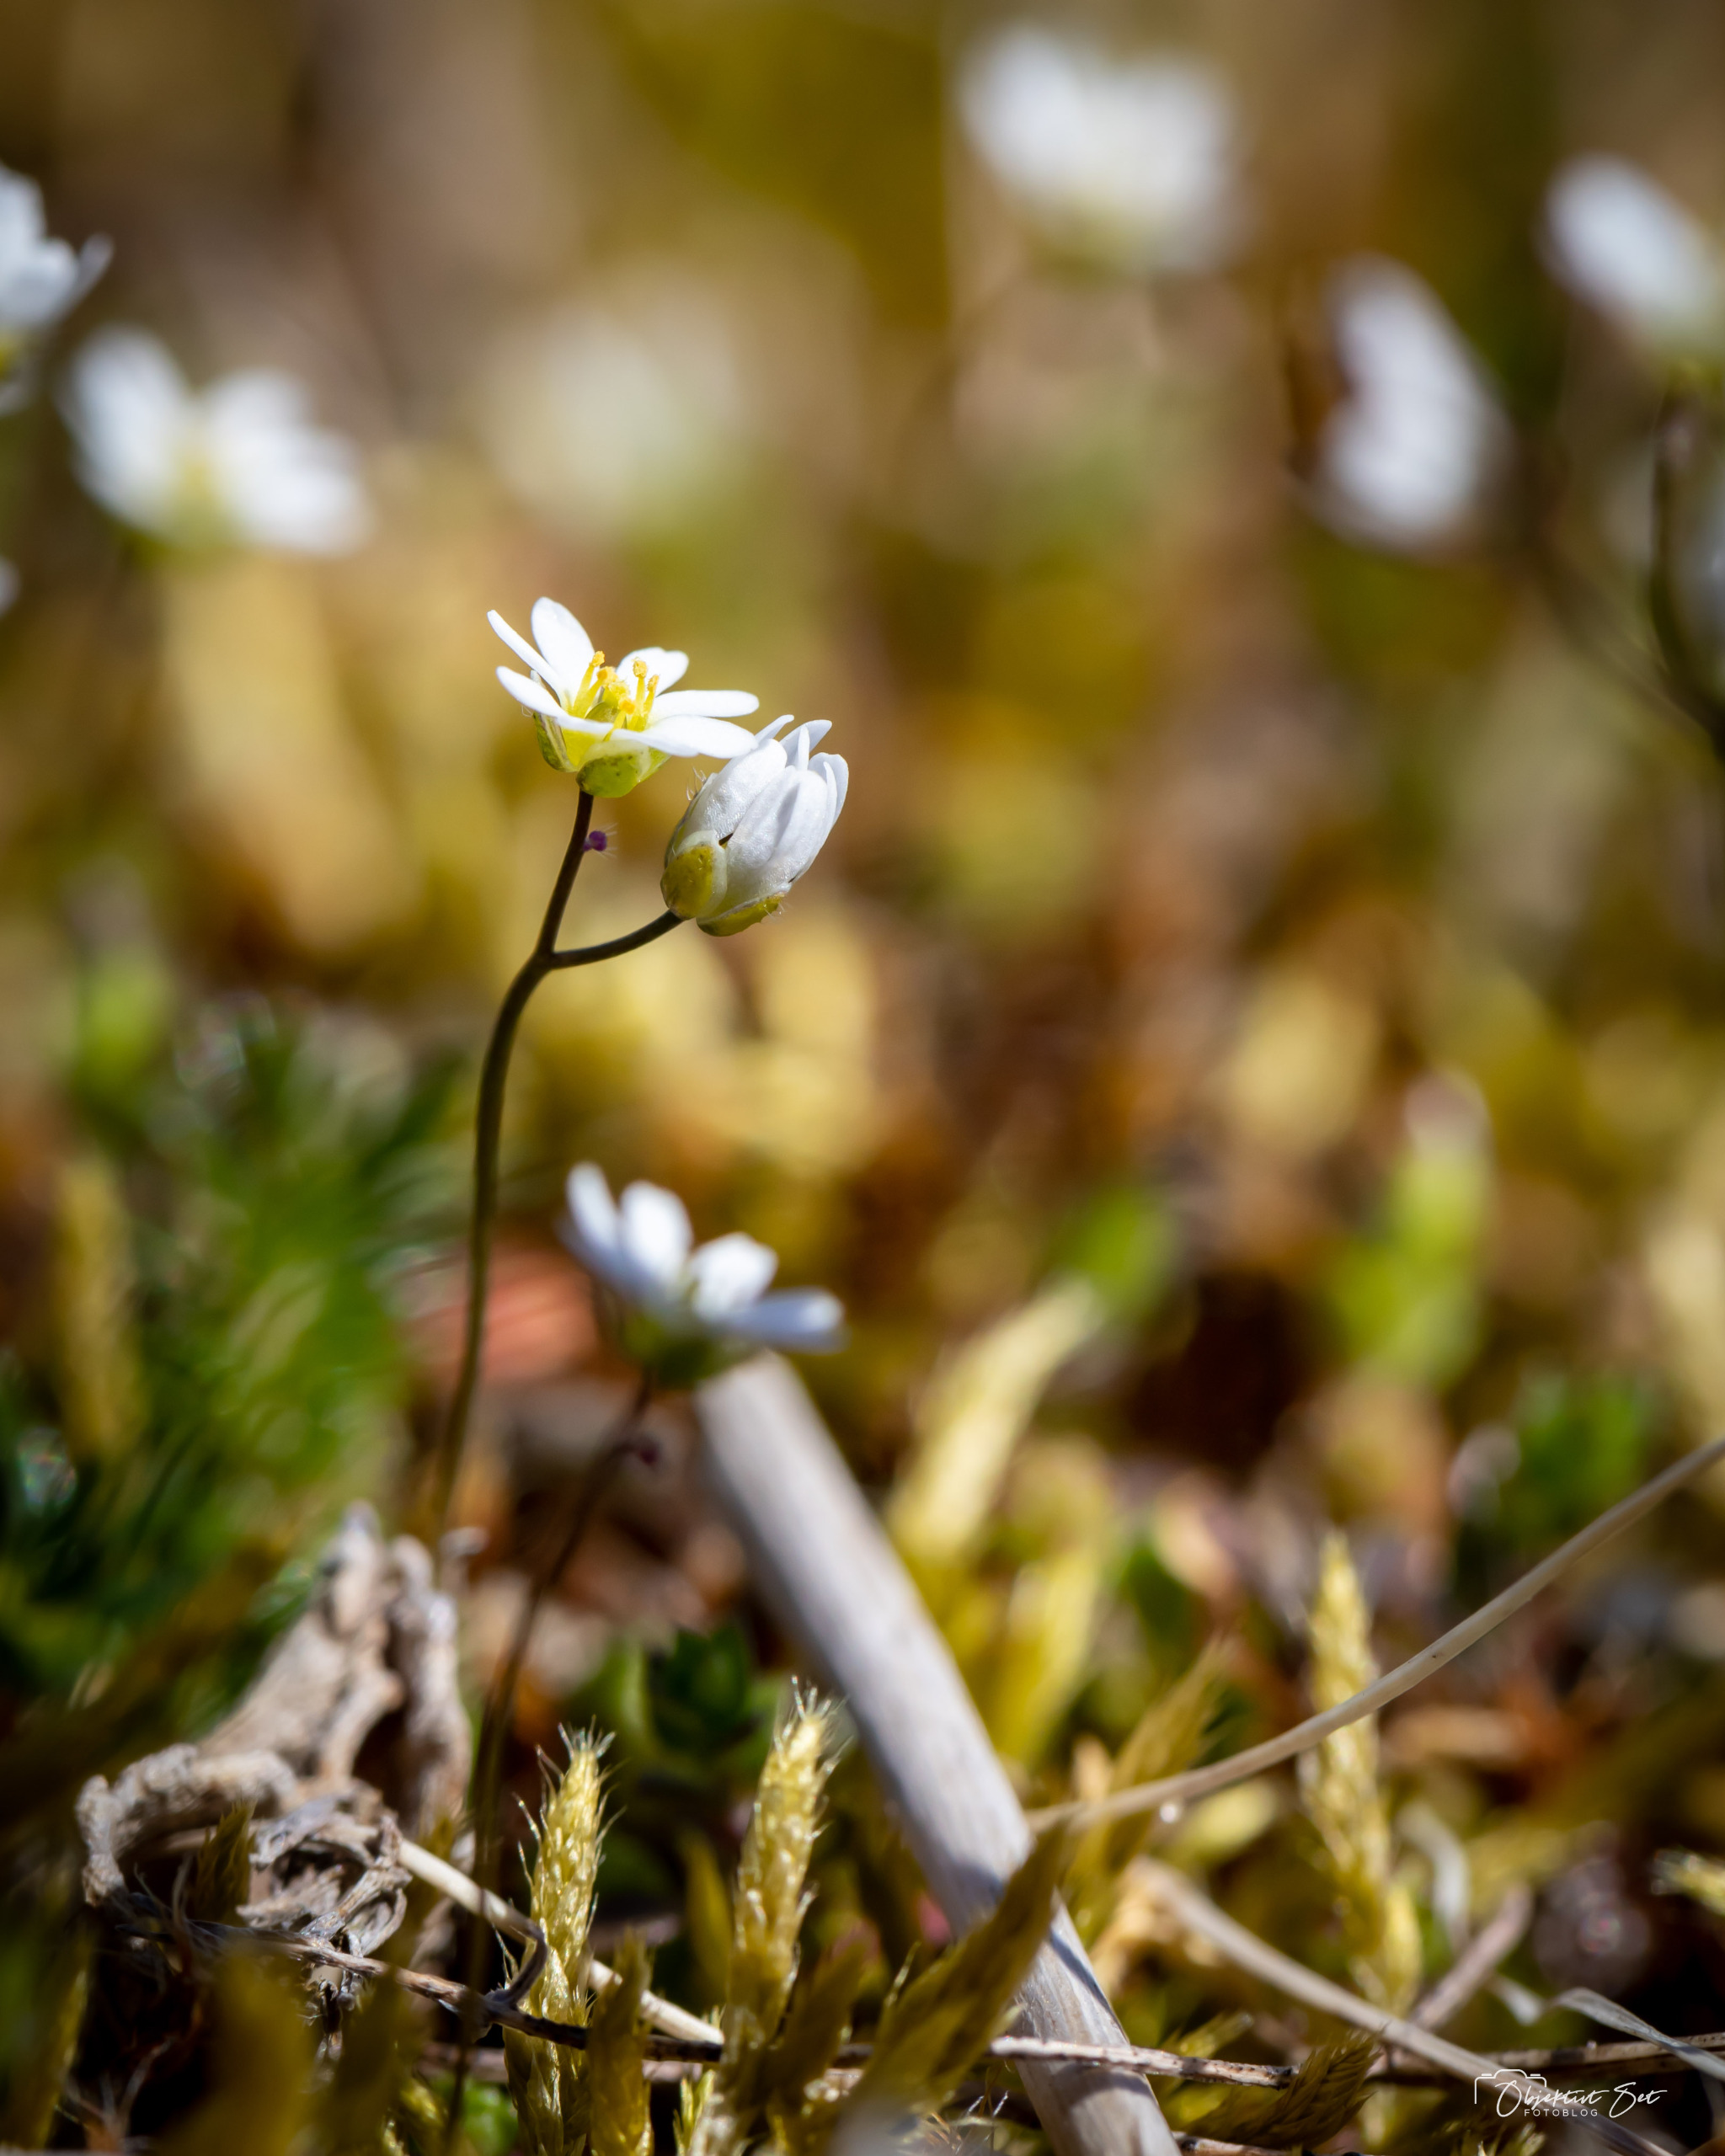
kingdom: Plantae
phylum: Tracheophyta
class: Magnoliopsida
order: Brassicales
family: Brassicaceae
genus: Draba
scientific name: Draba verna
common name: Vår-gæslingeblomst
